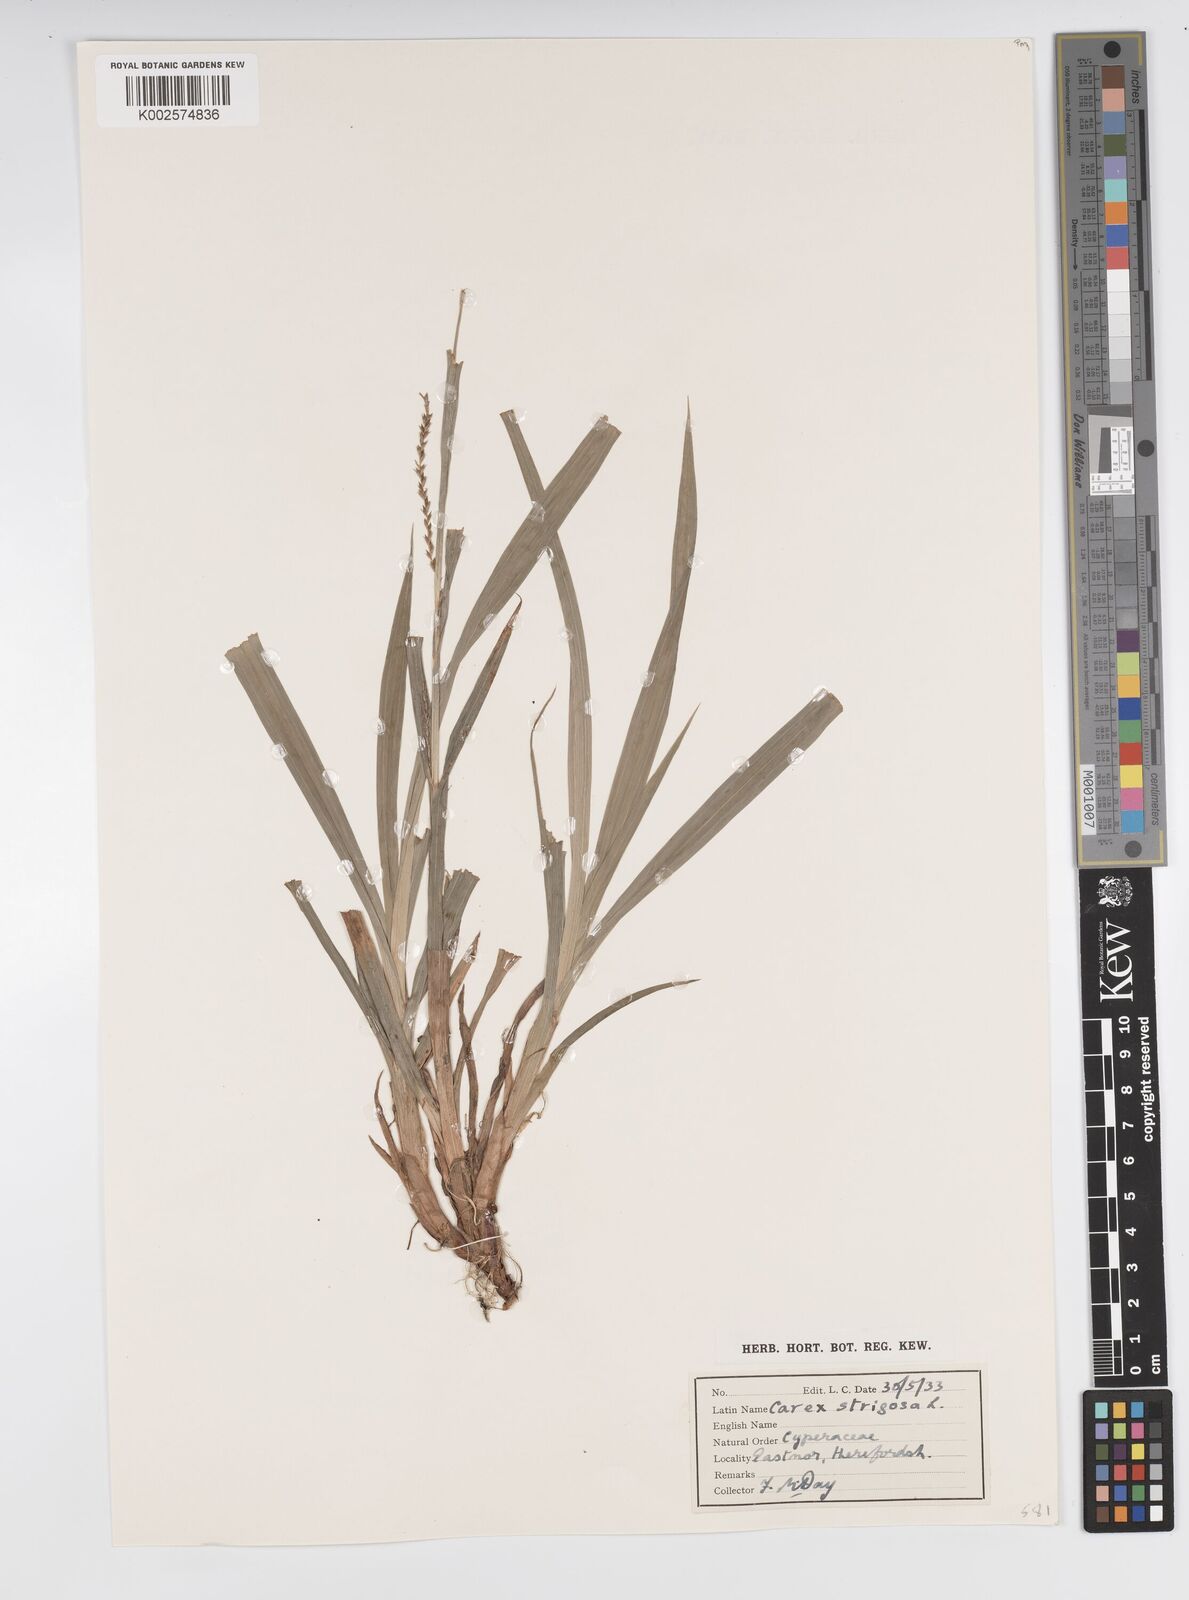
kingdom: Plantae
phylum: Tracheophyta
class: Liliopsida
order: Poales
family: Cyperaceae
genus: Carex
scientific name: Carex strigosa
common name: Thin-spiked wood-sedge
